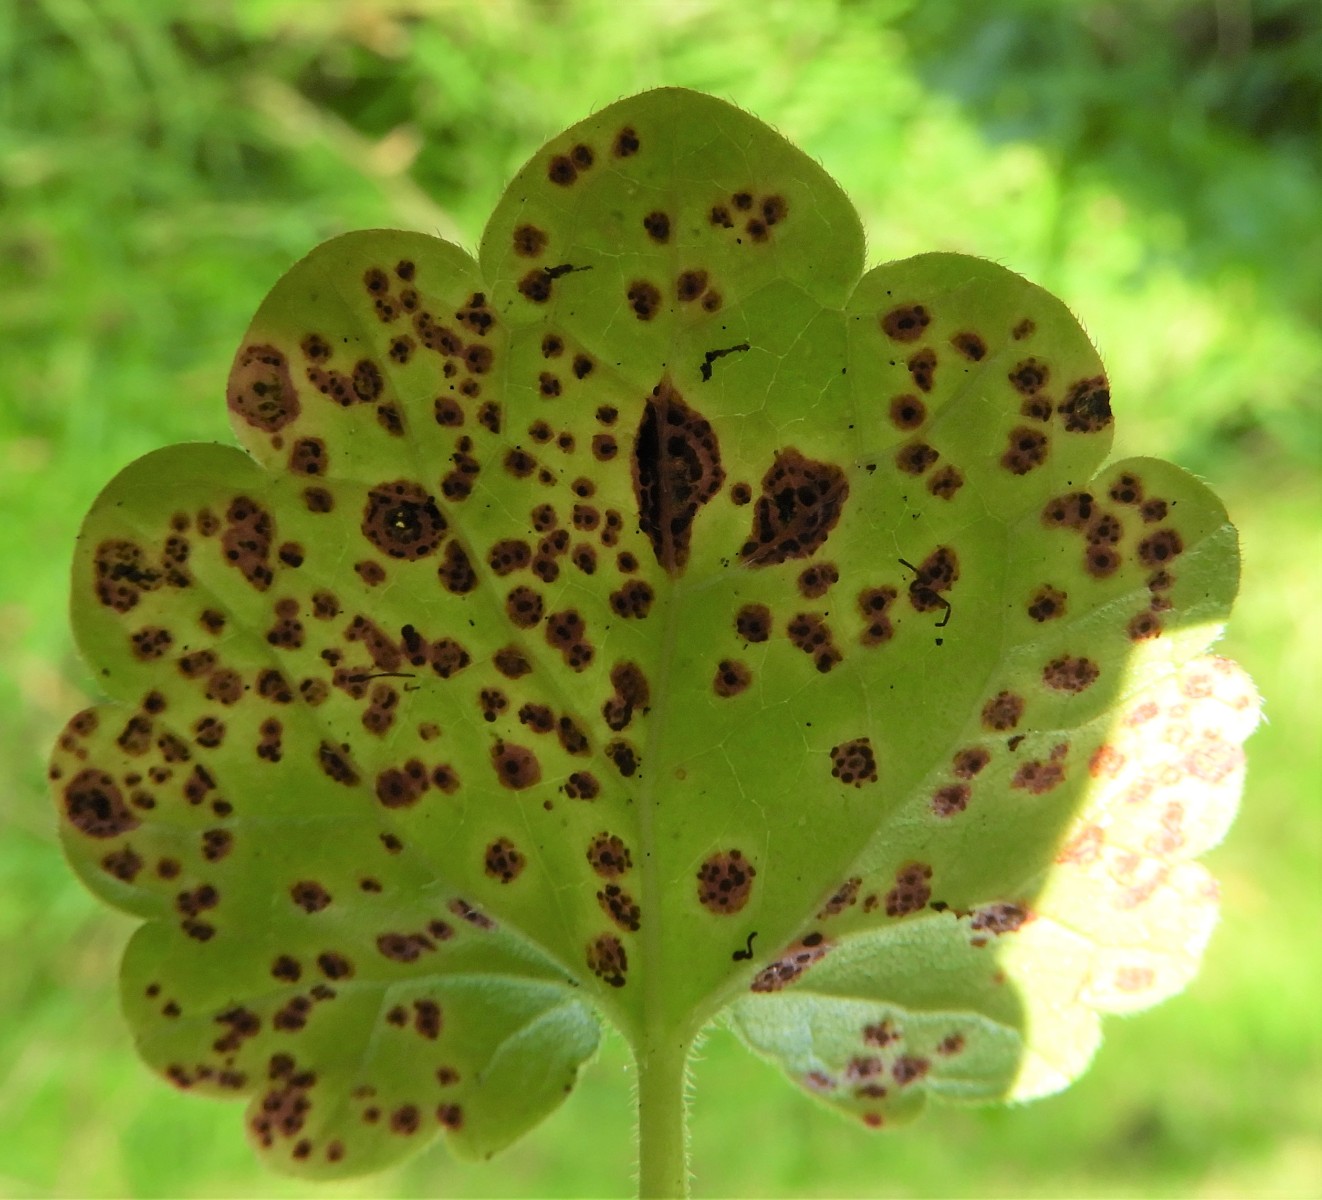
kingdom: Fungi
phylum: Basidiomycota
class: Pucciniomycetes
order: Pucciniales
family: Pucciniaceae
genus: Puccinia
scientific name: Puccinia glechomatis
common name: Ground ivy rust
